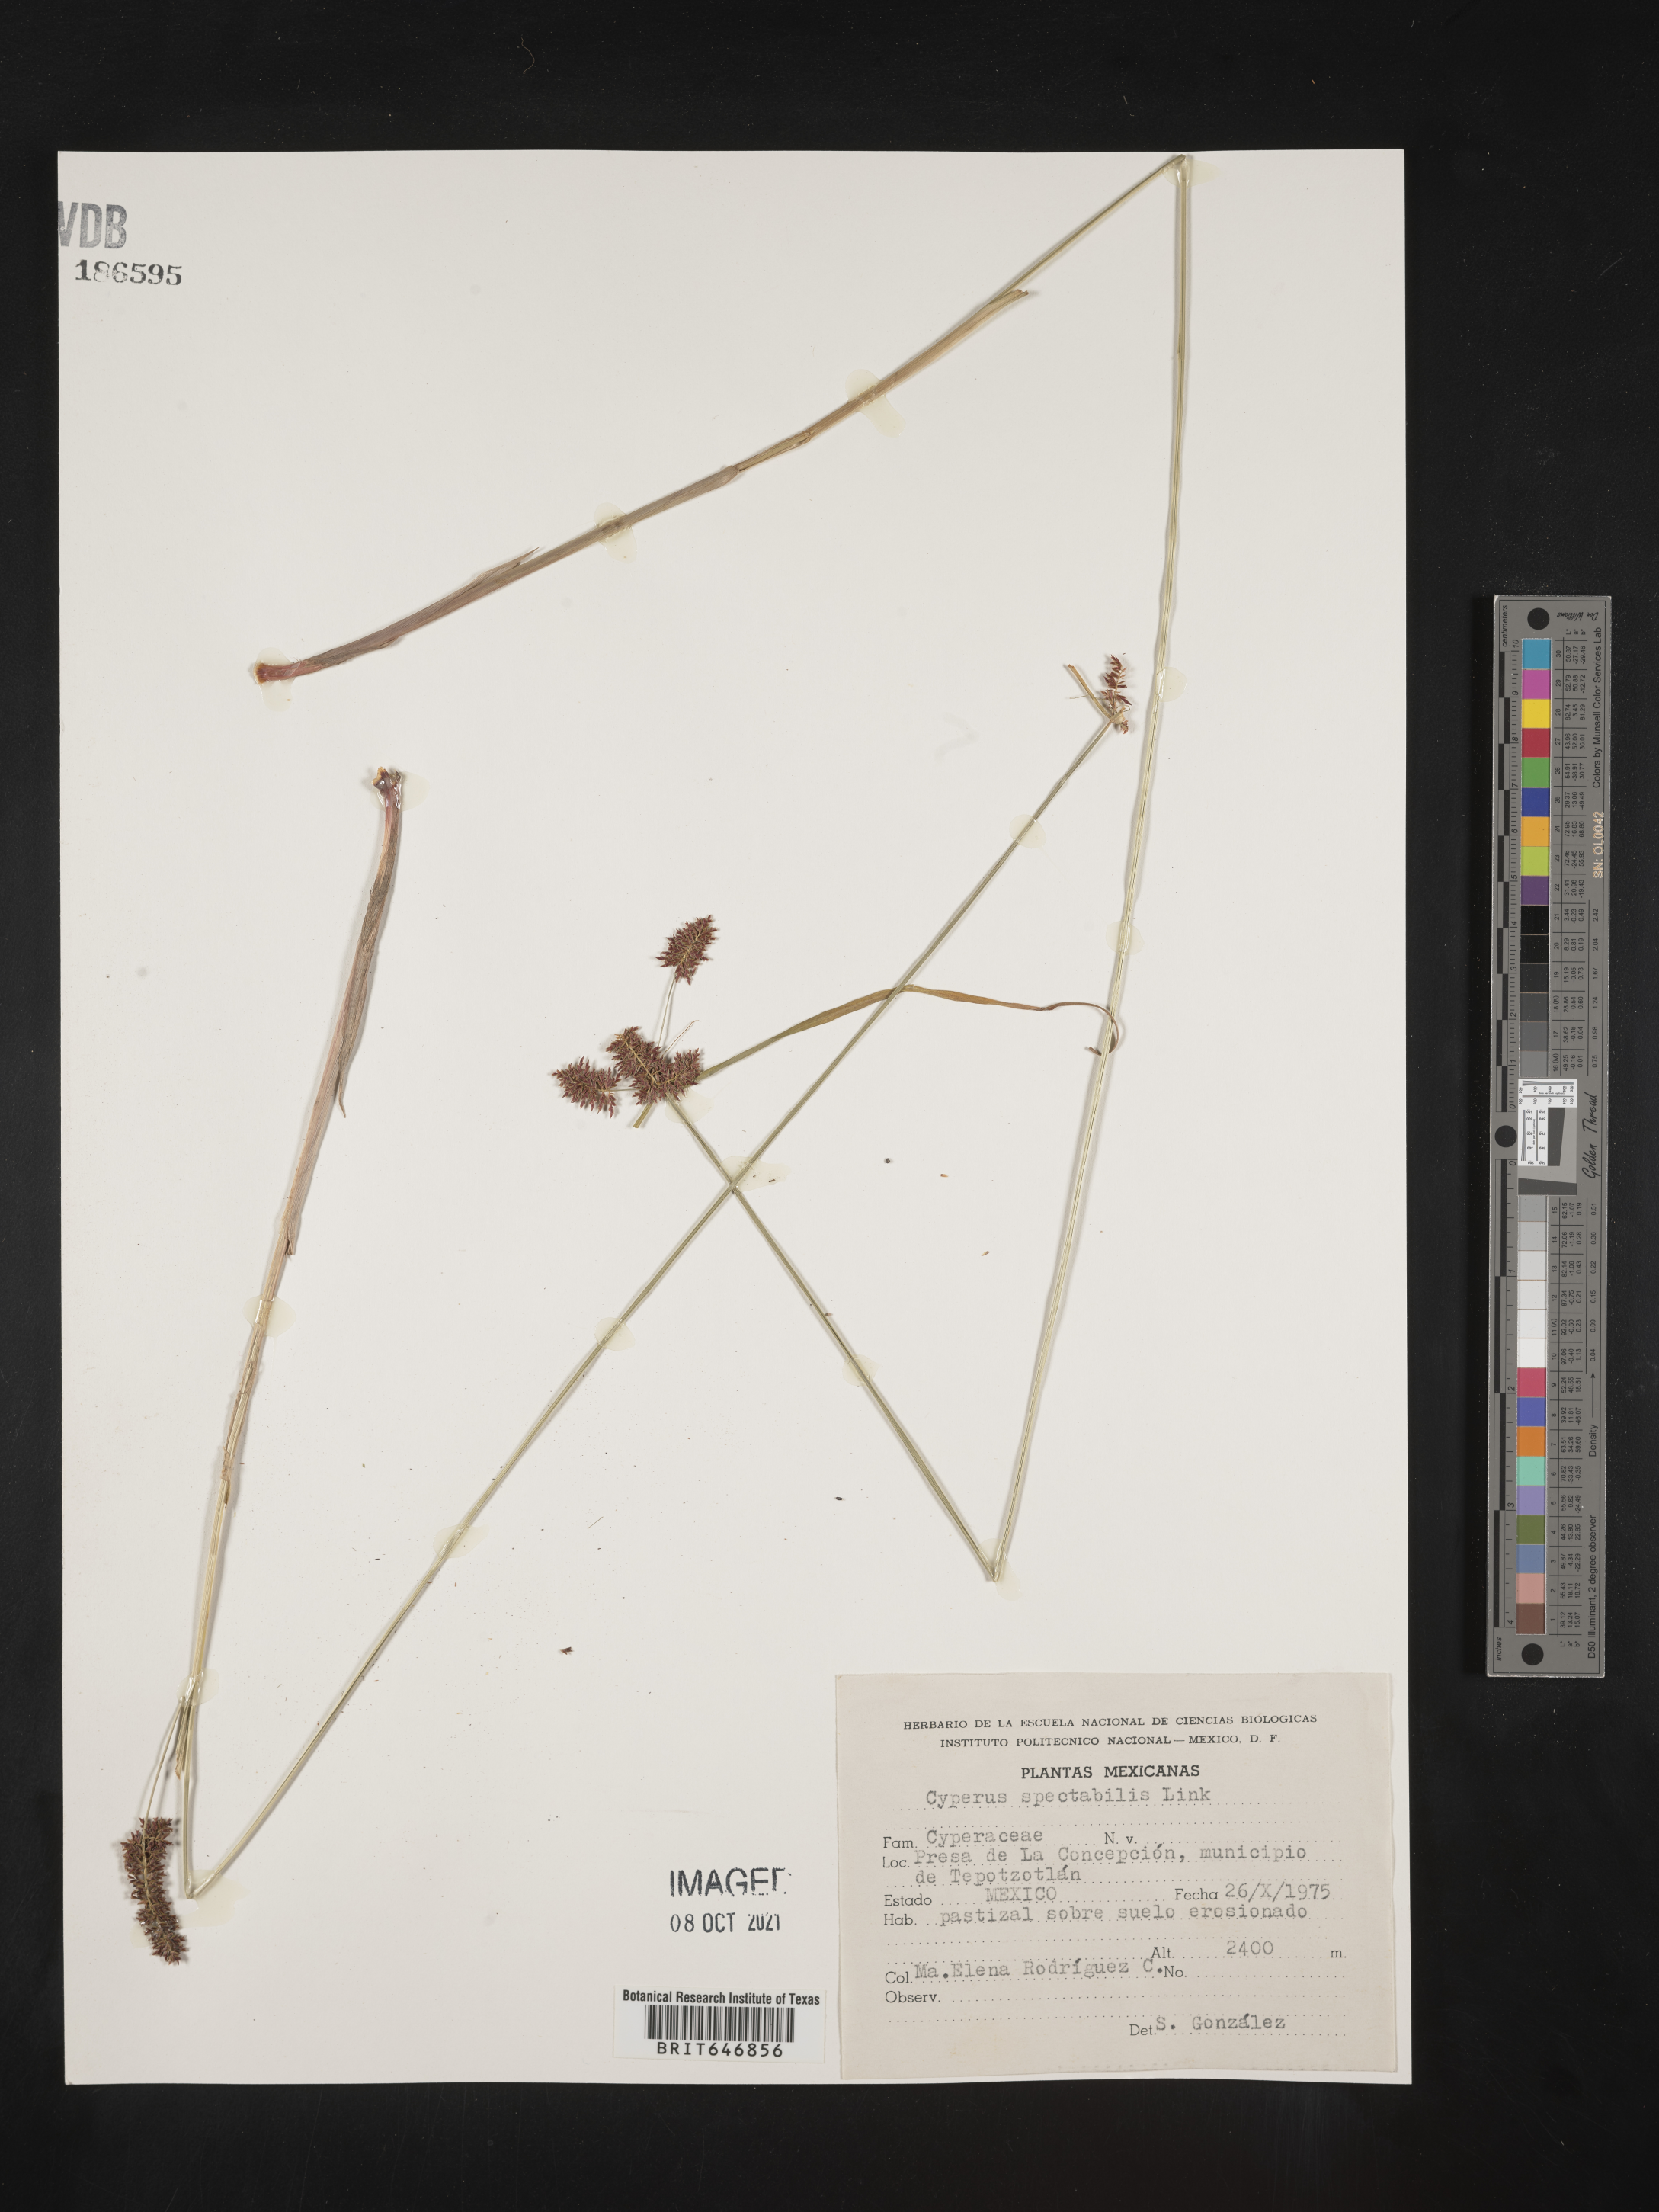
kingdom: Plantae
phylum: Tracheophyta
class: Liliopsida
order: Poales
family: Cyperaceae
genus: Cyperus
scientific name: Cyperus
